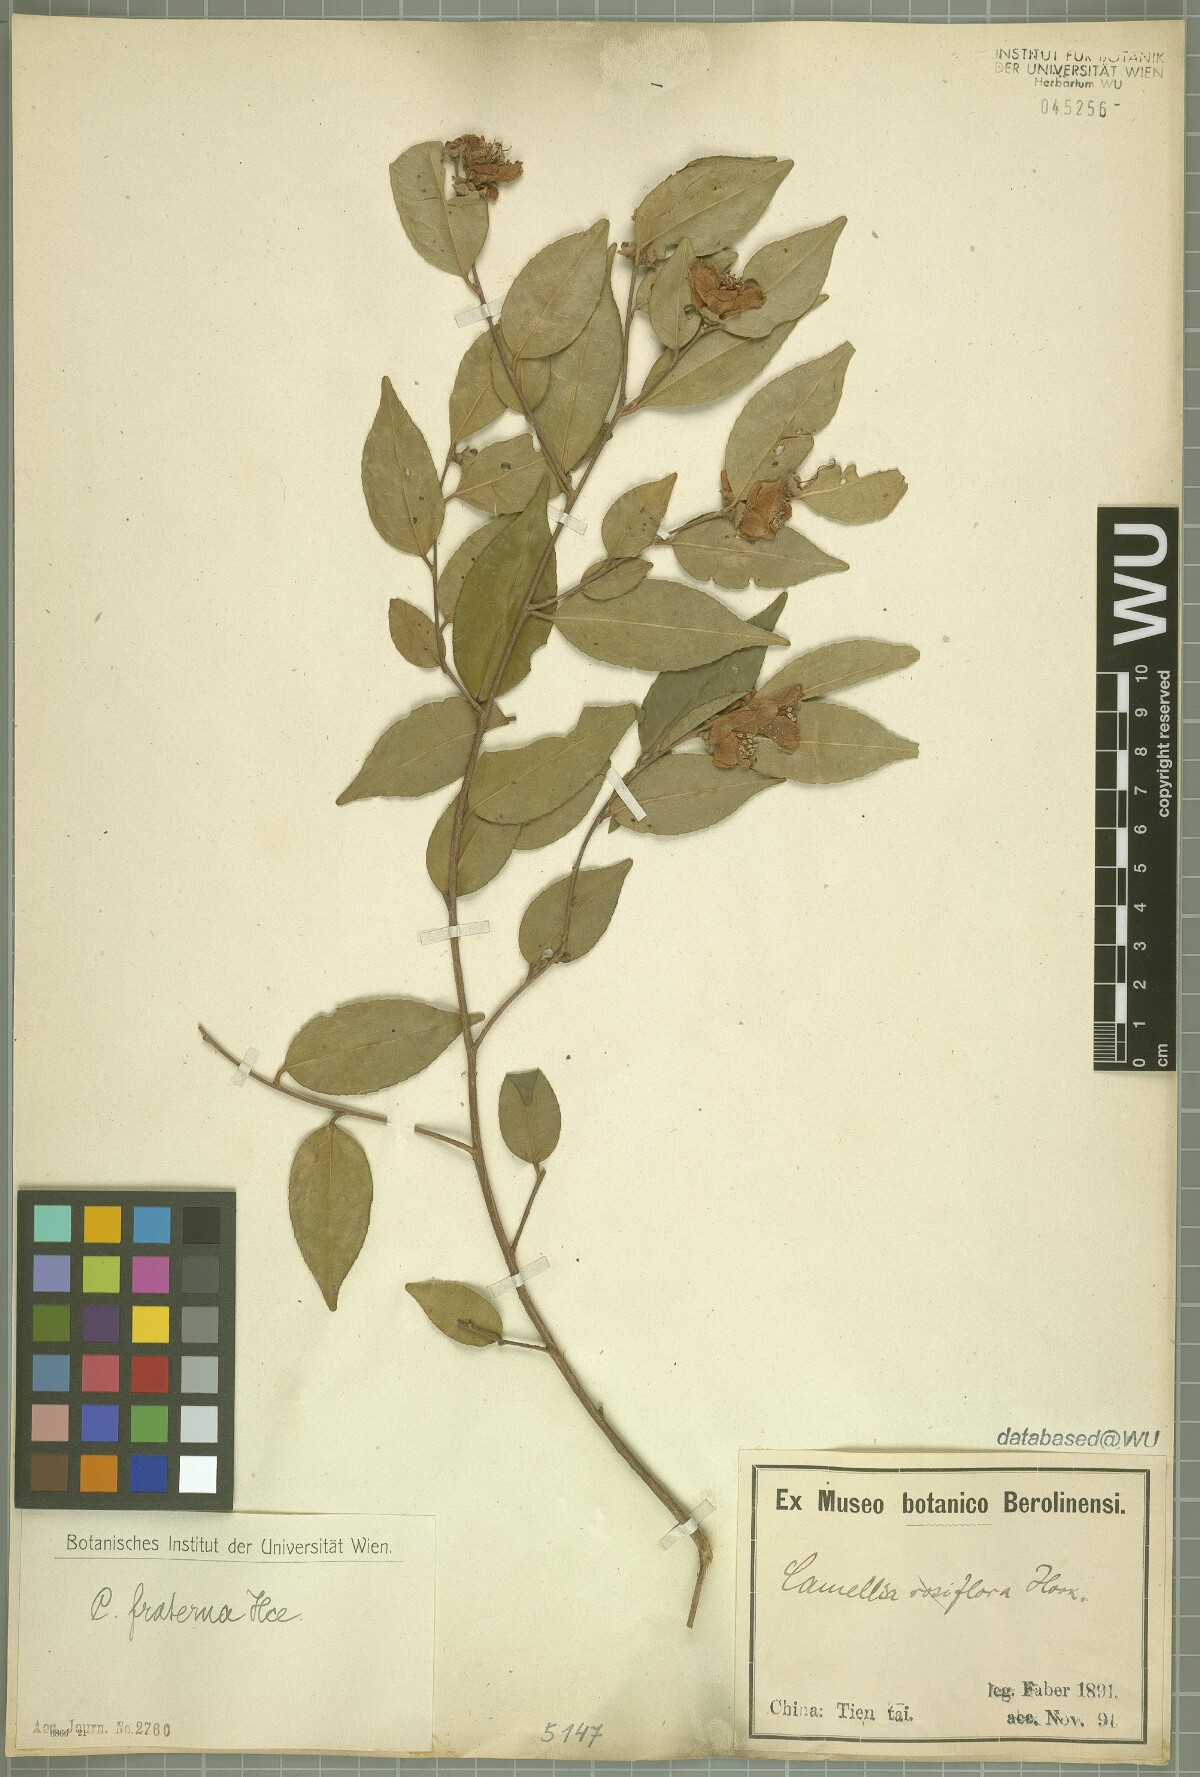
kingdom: Plantae
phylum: Tracheophyta
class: Magnoliopsida
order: Ericales
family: Theaceae
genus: Camellia
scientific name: Camellia fraterna
